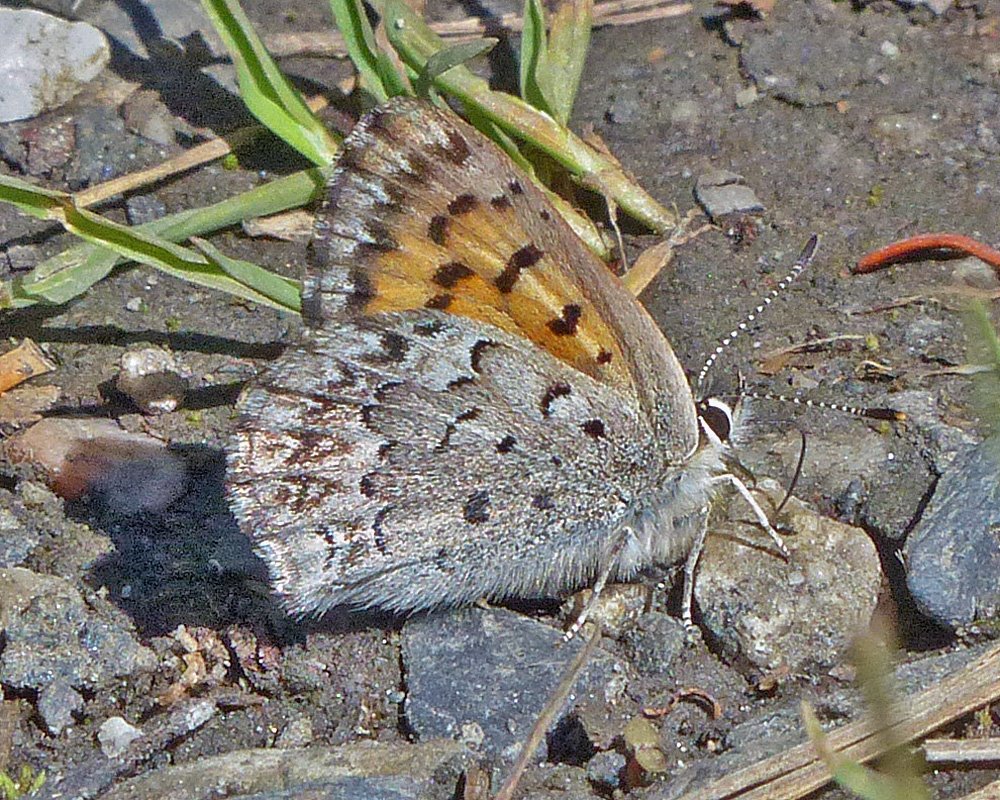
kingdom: Animalia
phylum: Arthropoda
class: Insecta
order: Lepidoptera
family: Lycaenidae
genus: Lycaena
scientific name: Lycaena mariposa
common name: Mariposa Copper
